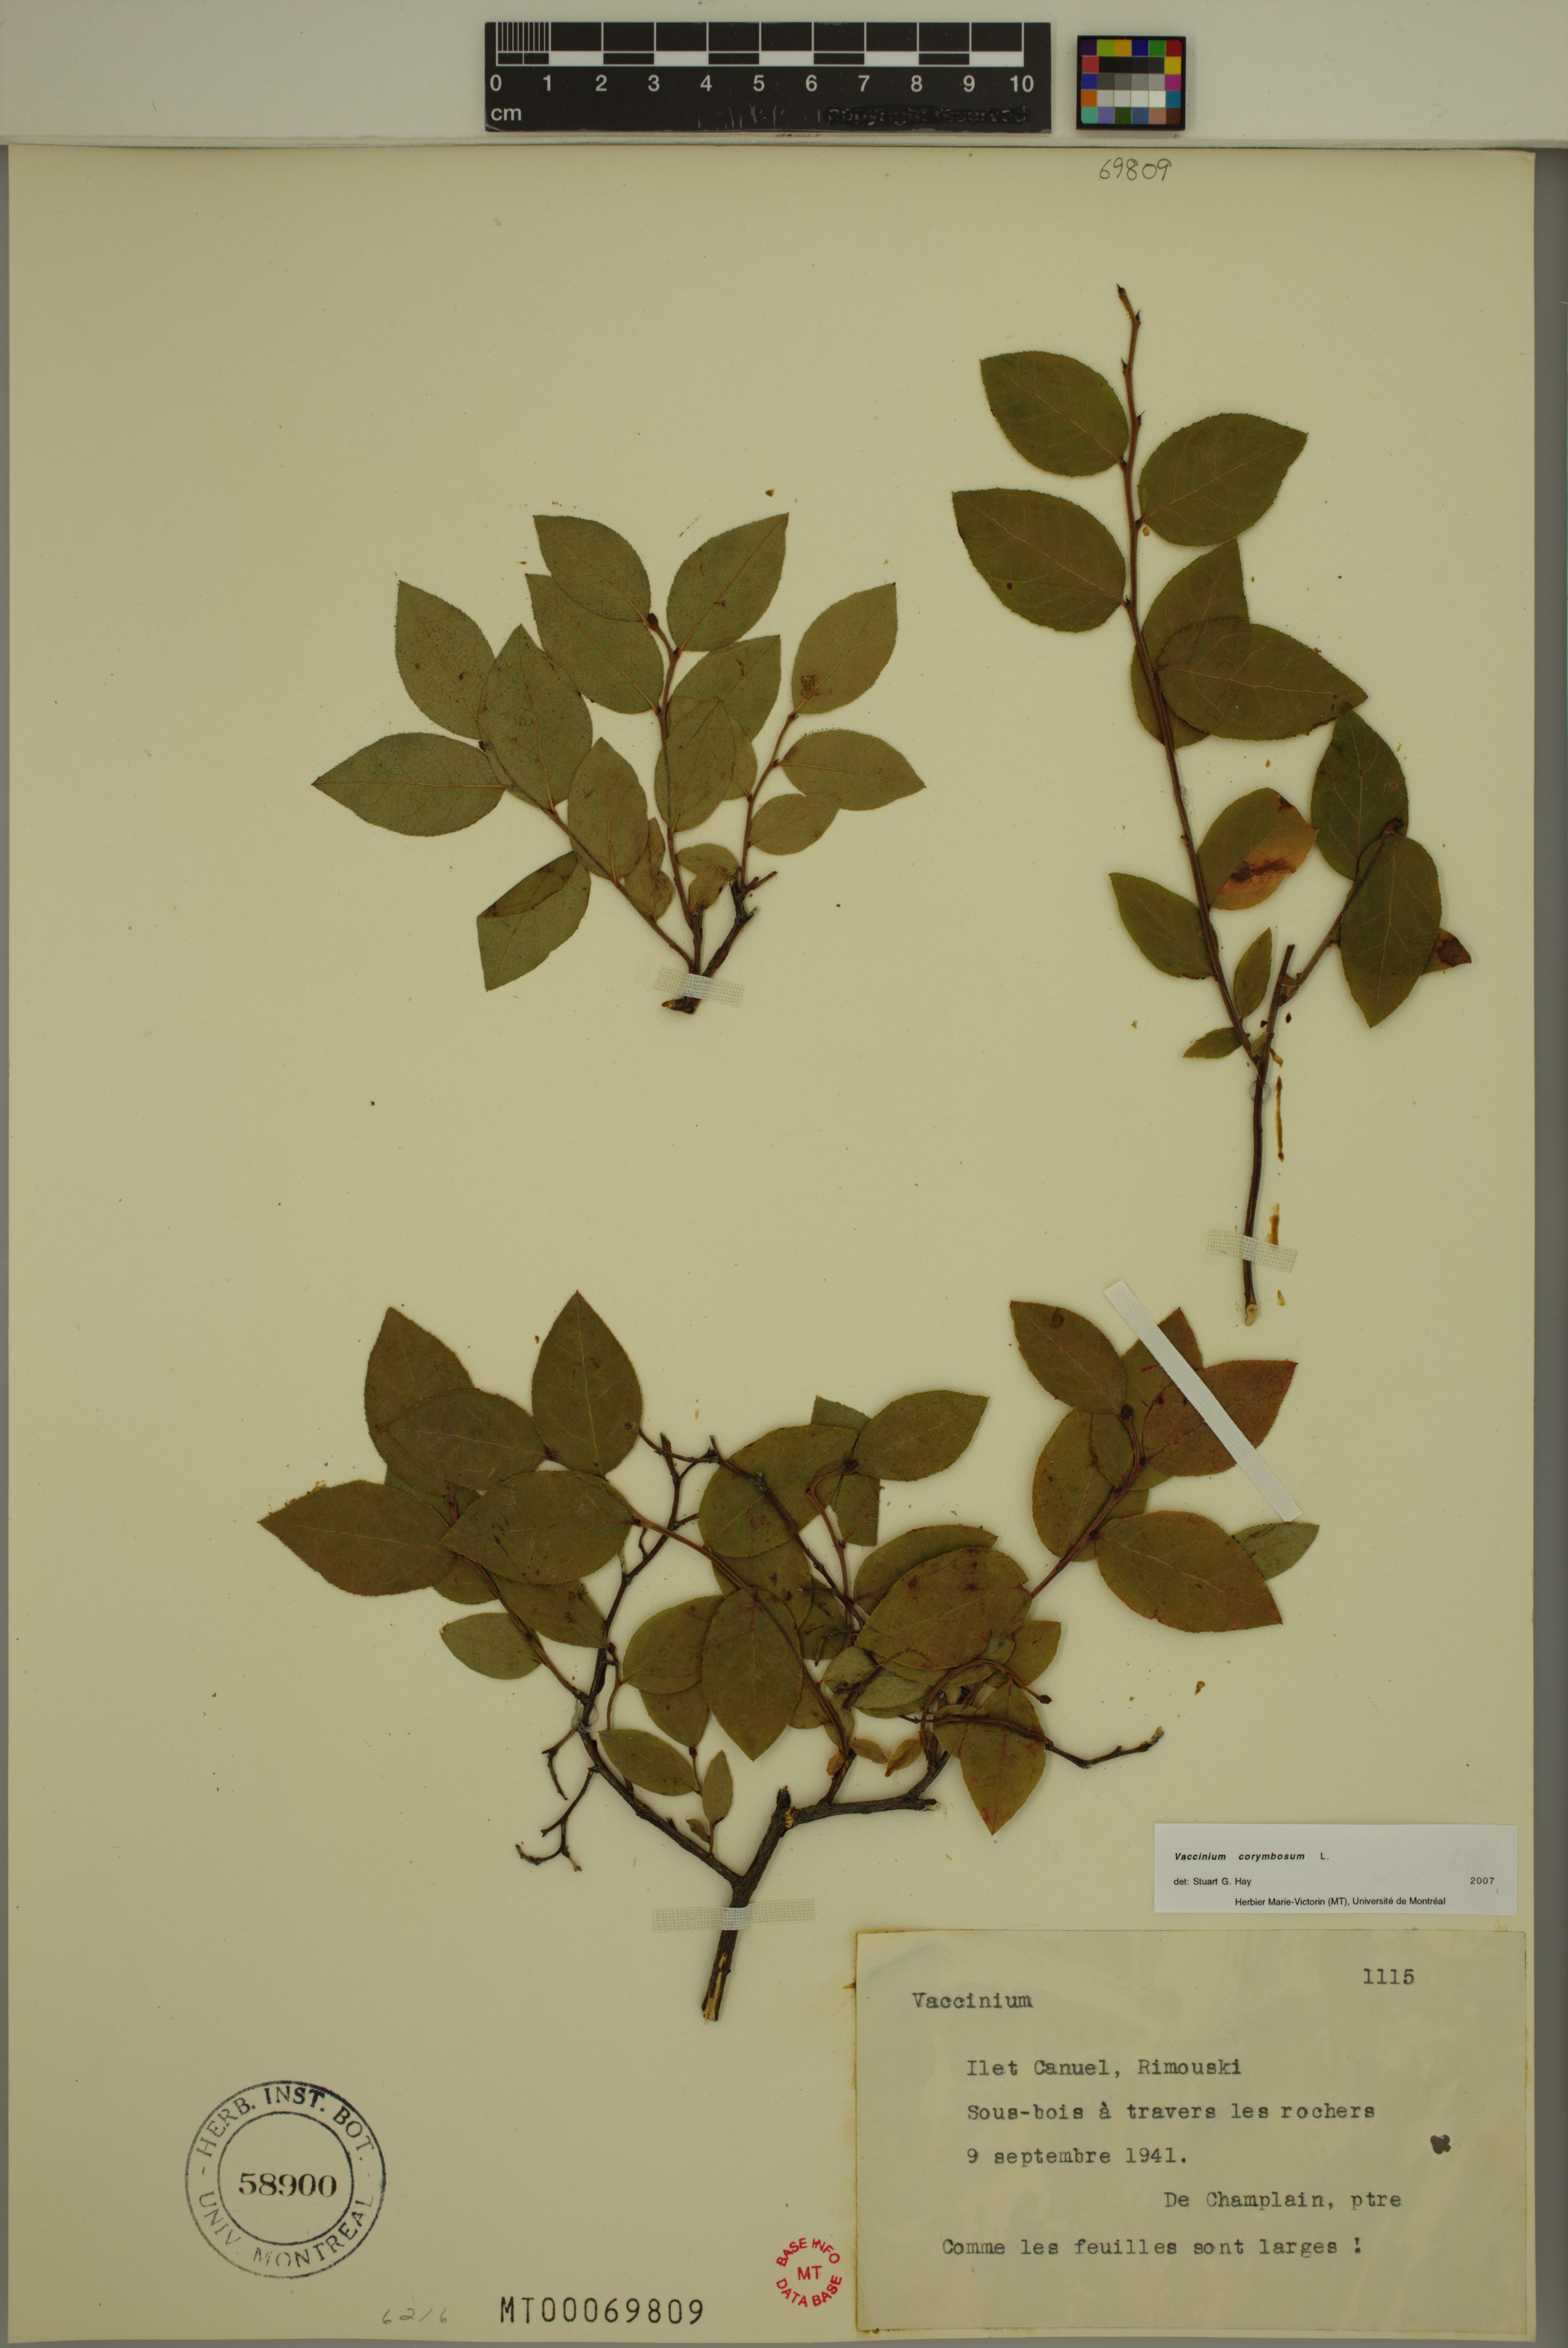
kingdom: Plantae
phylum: Tracheophyta
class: Magnoliopsida
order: Ericales
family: Ericaceae
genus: Vaccinium
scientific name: Vaccinium corymbosum
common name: Blueberry
